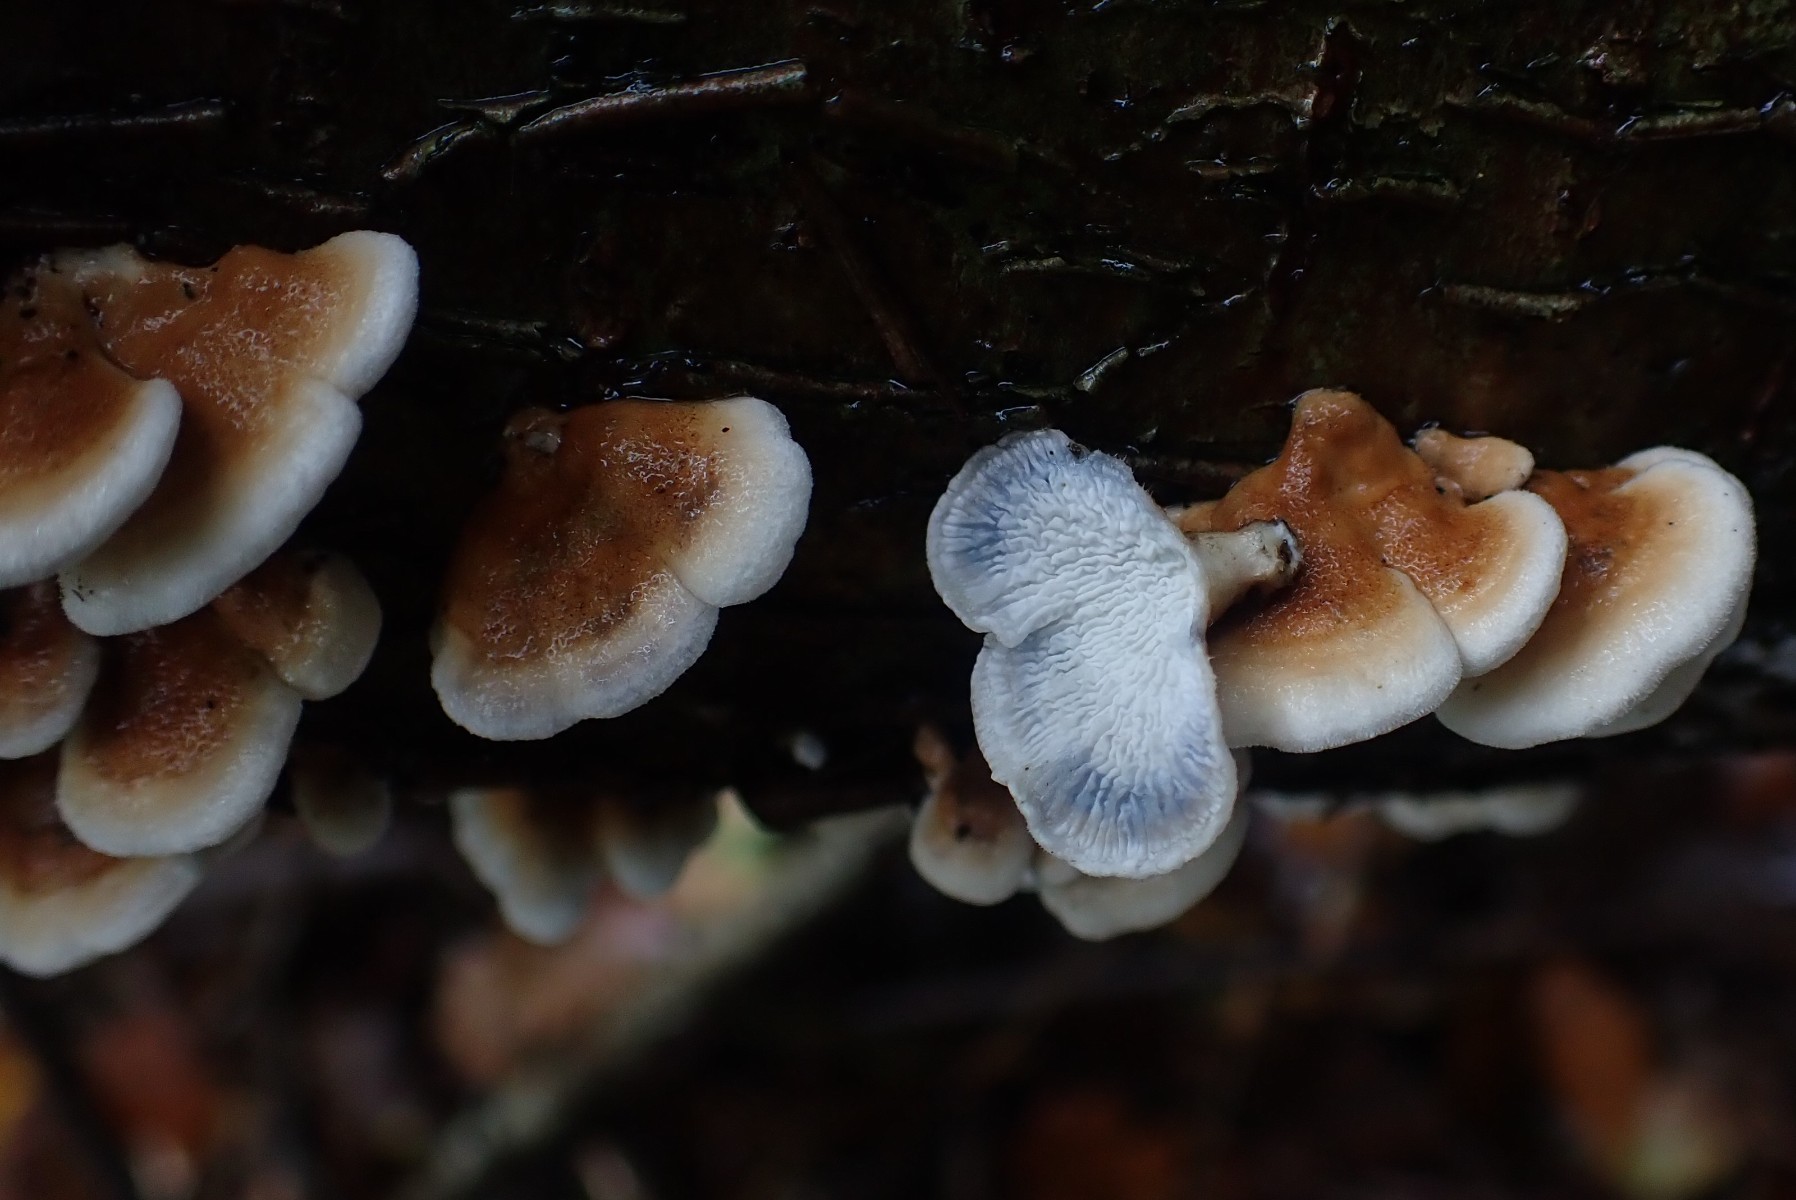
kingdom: Fungi
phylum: Basidiomycota
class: Agaricomycetes
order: Amylocorticiales
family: Amylocorticiaceae
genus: Plicaturopsis
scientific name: Plicaturopsis crispa
